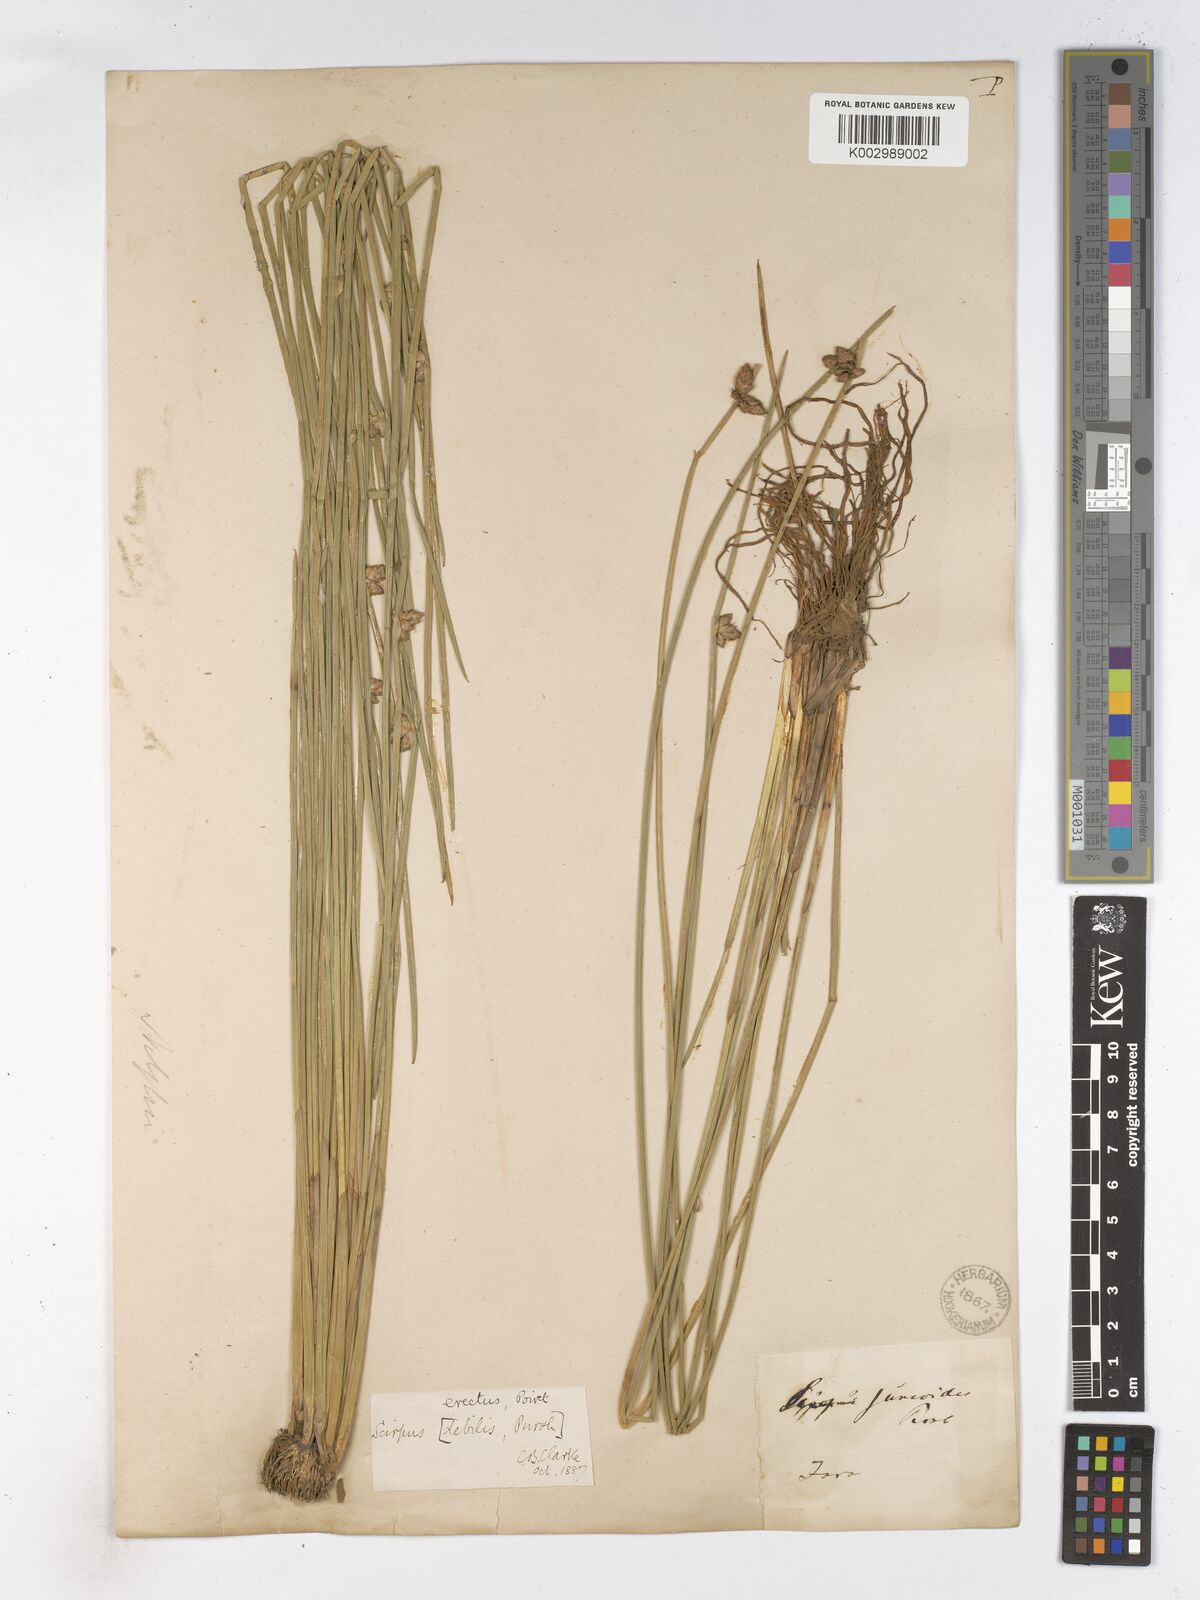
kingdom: Plantae
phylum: Tracheophyta
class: Liliopsida
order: Poales
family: Cyperaceae
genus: Schoenoplectiella
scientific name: Schoenoplectiella juncoides
